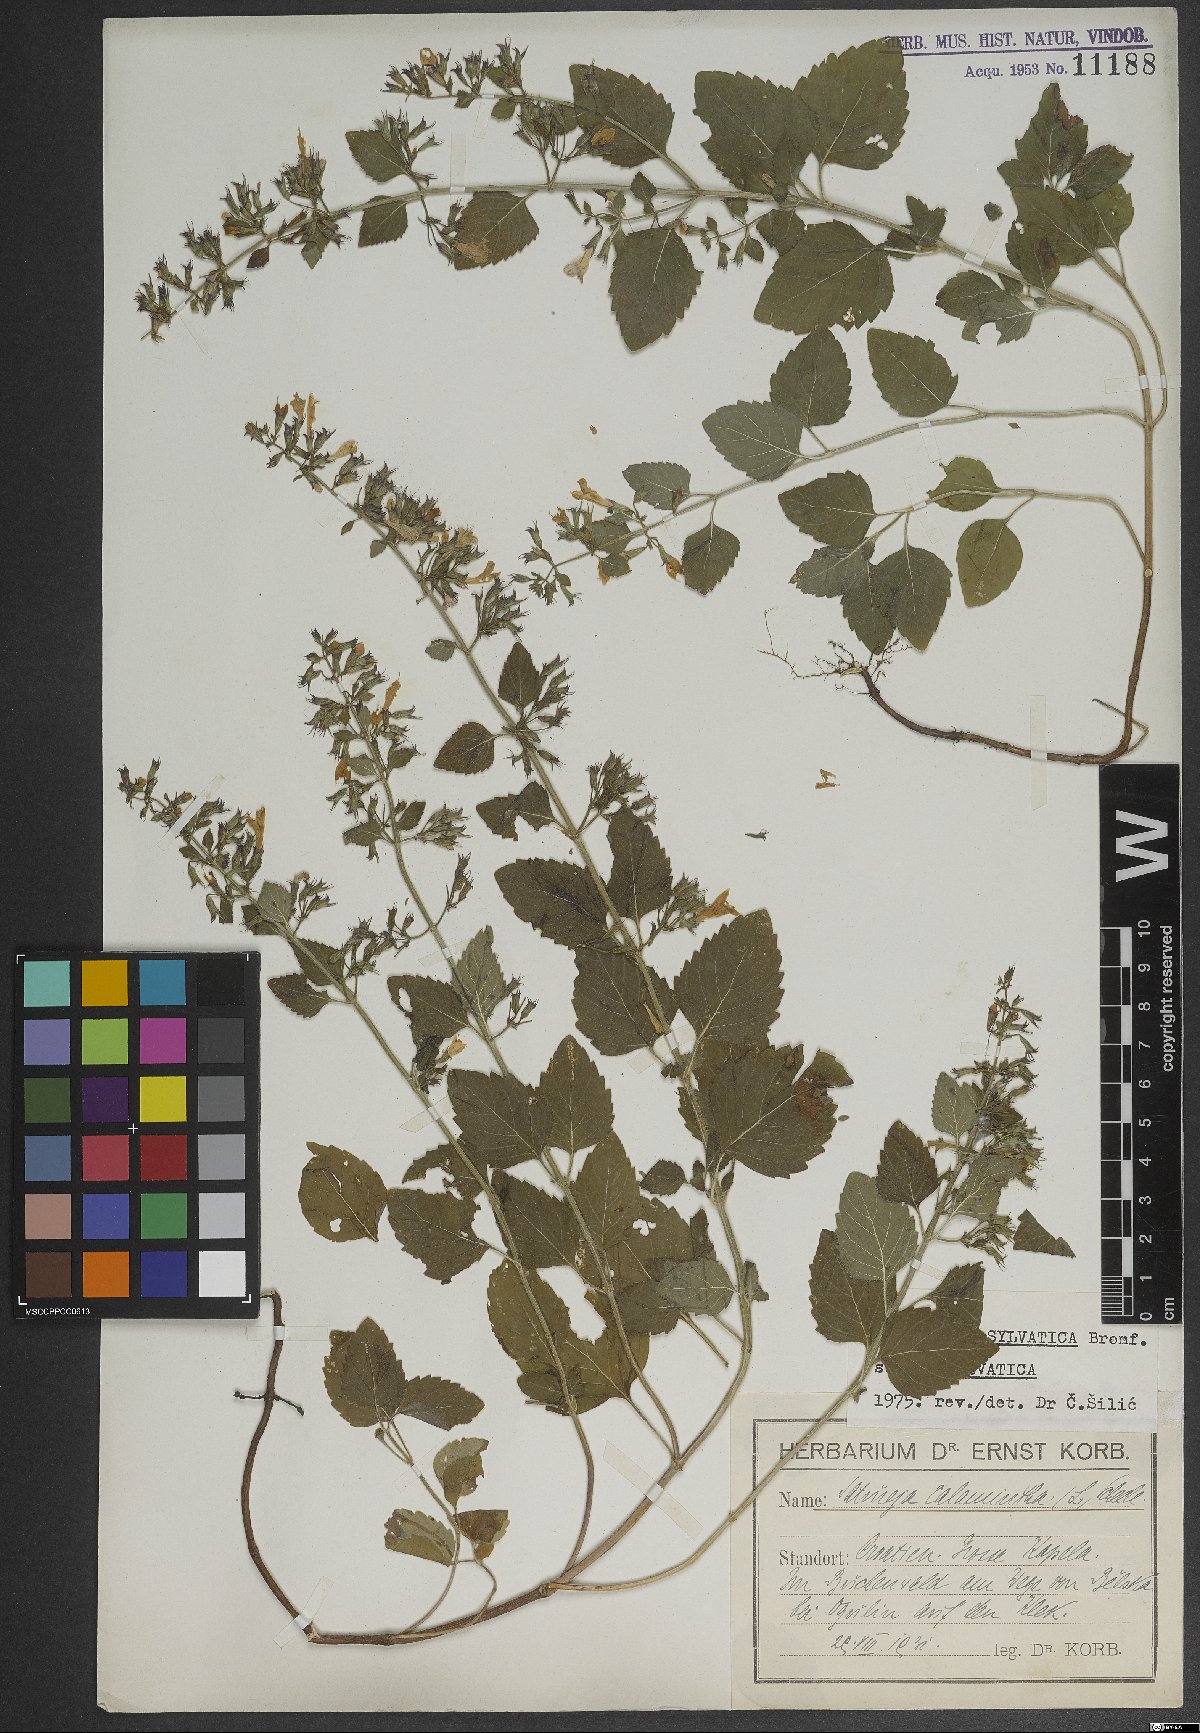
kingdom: Plantae
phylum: Tracheophyta
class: Magnoliopsida
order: Lamiales
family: Lamiaceae
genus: Clinopodium
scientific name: Clinopodium menthifolium
